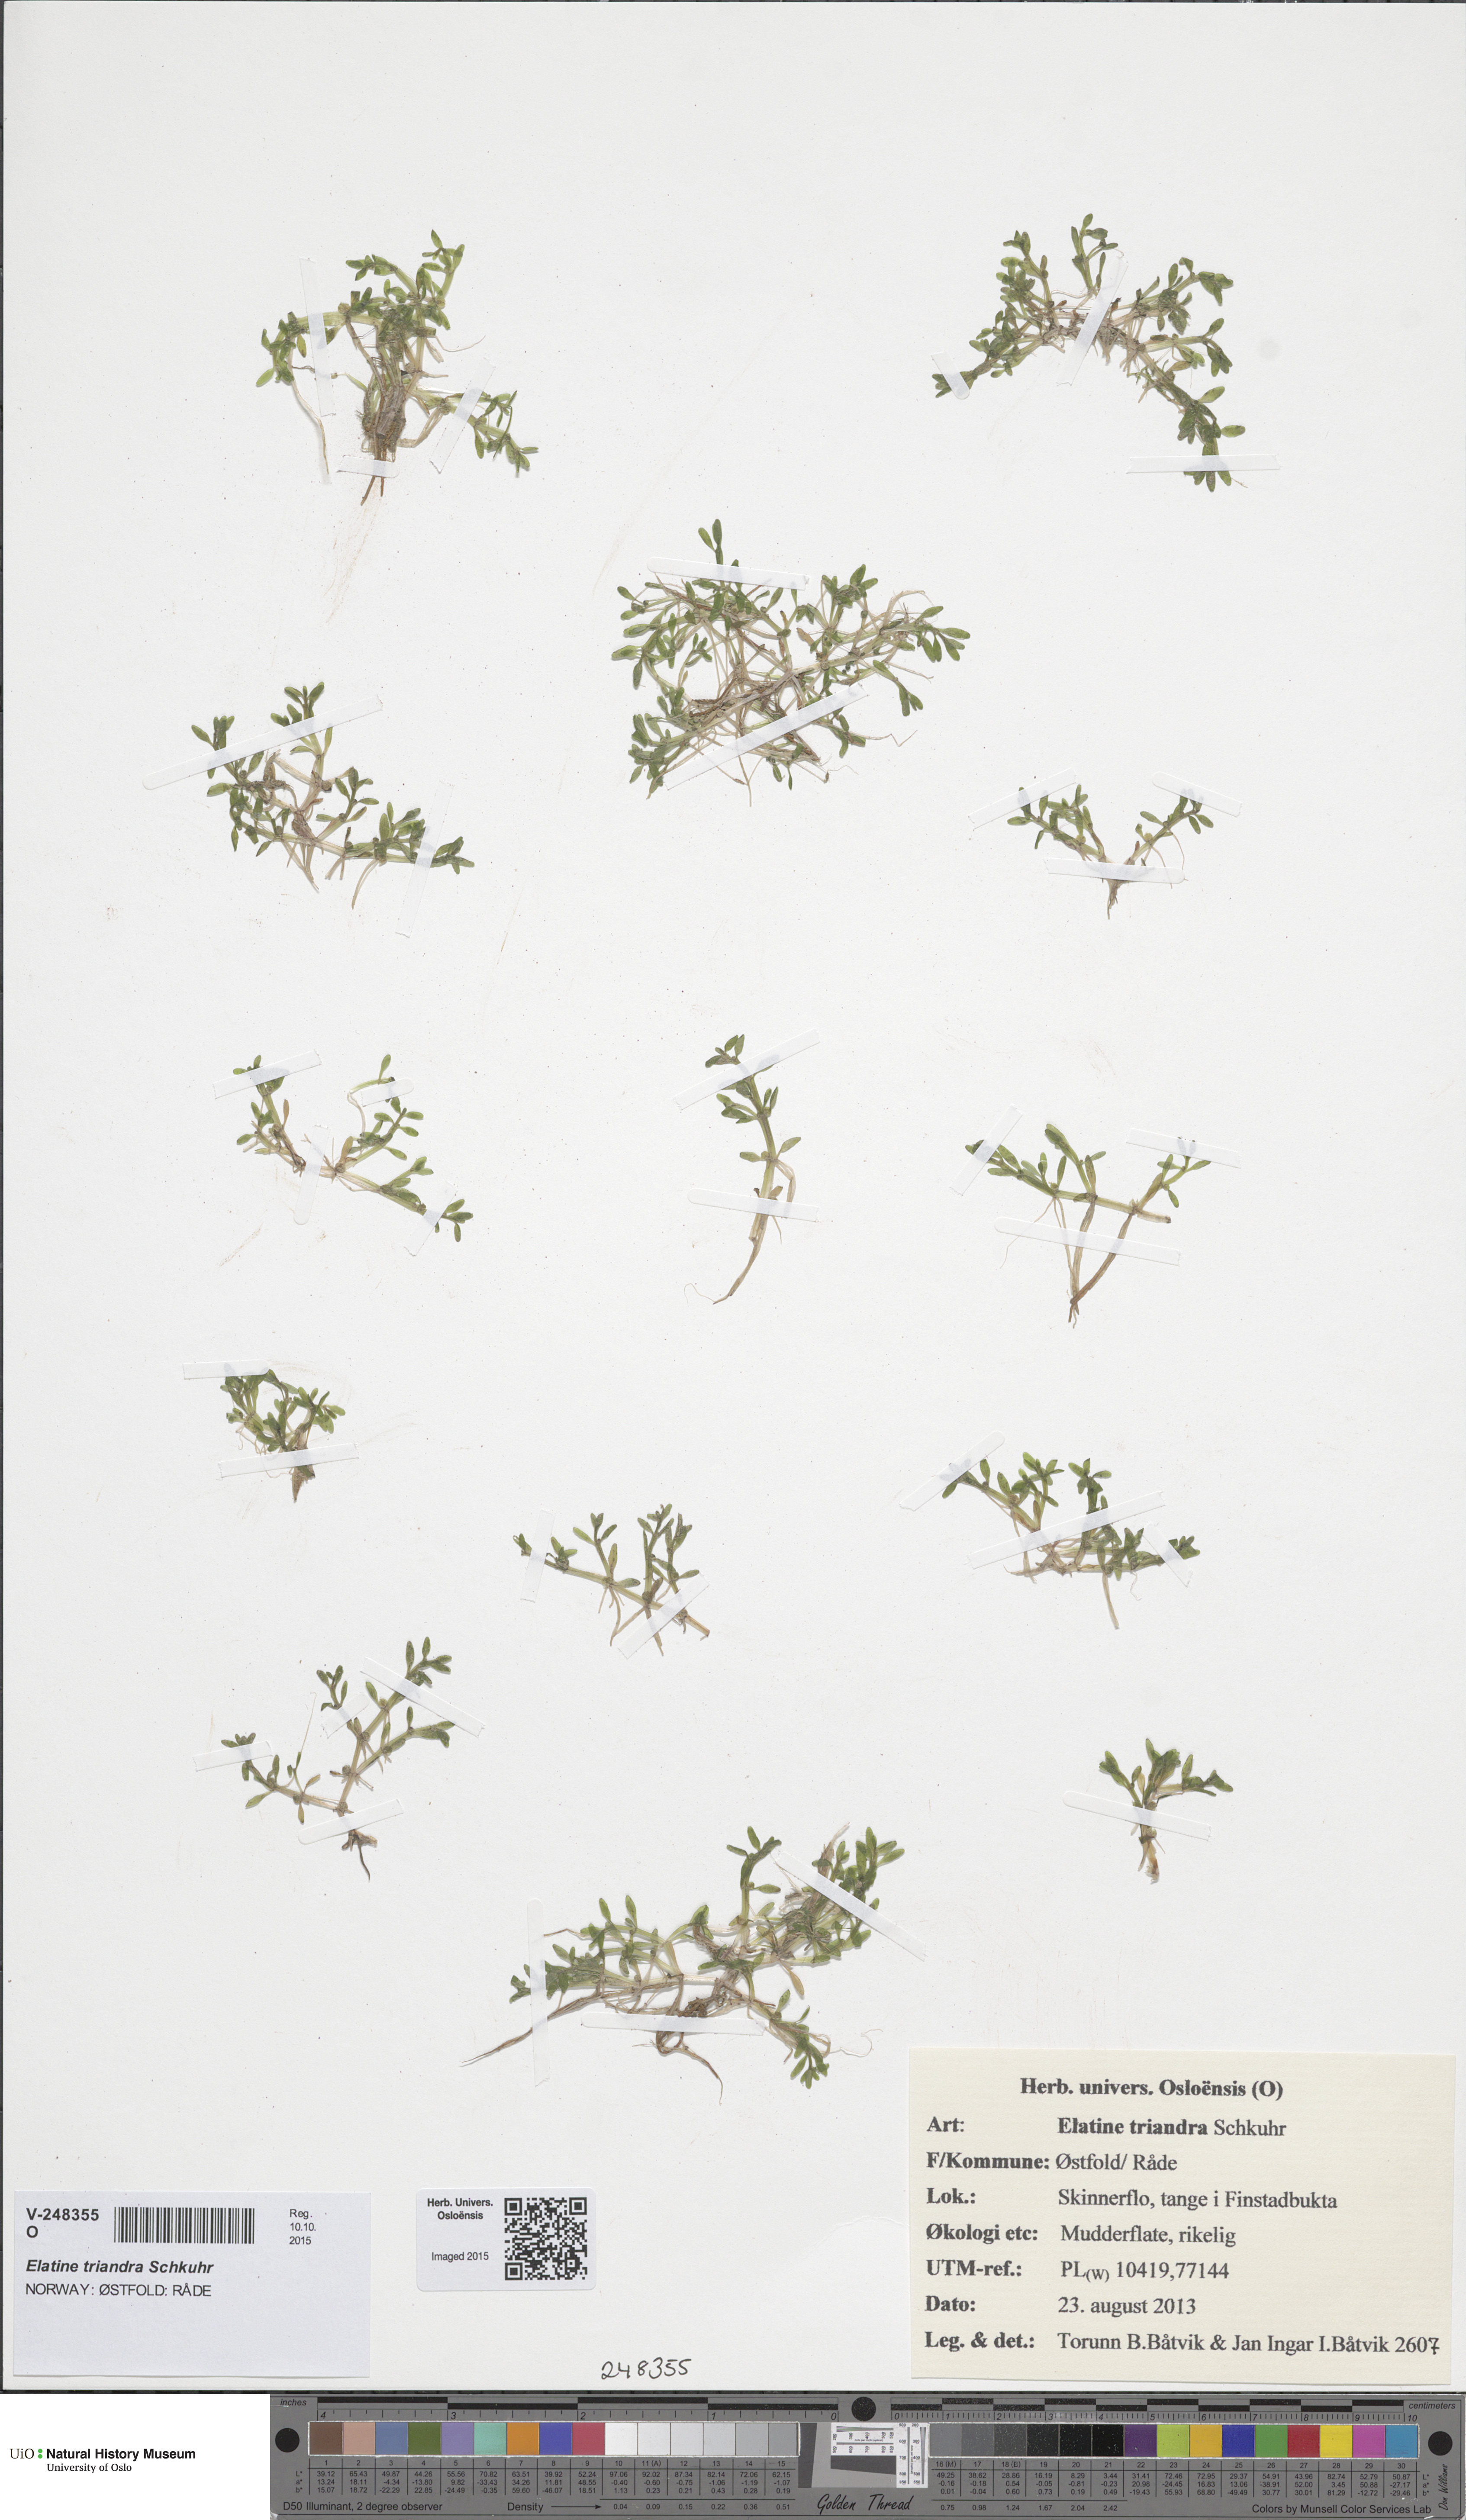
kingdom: Plantae
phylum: Tracheophyta
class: Magnoliopsida
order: Malpighiales
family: Elatinaceae
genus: Elatine
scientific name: Elatine triandra
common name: Three-stamened waterwort
